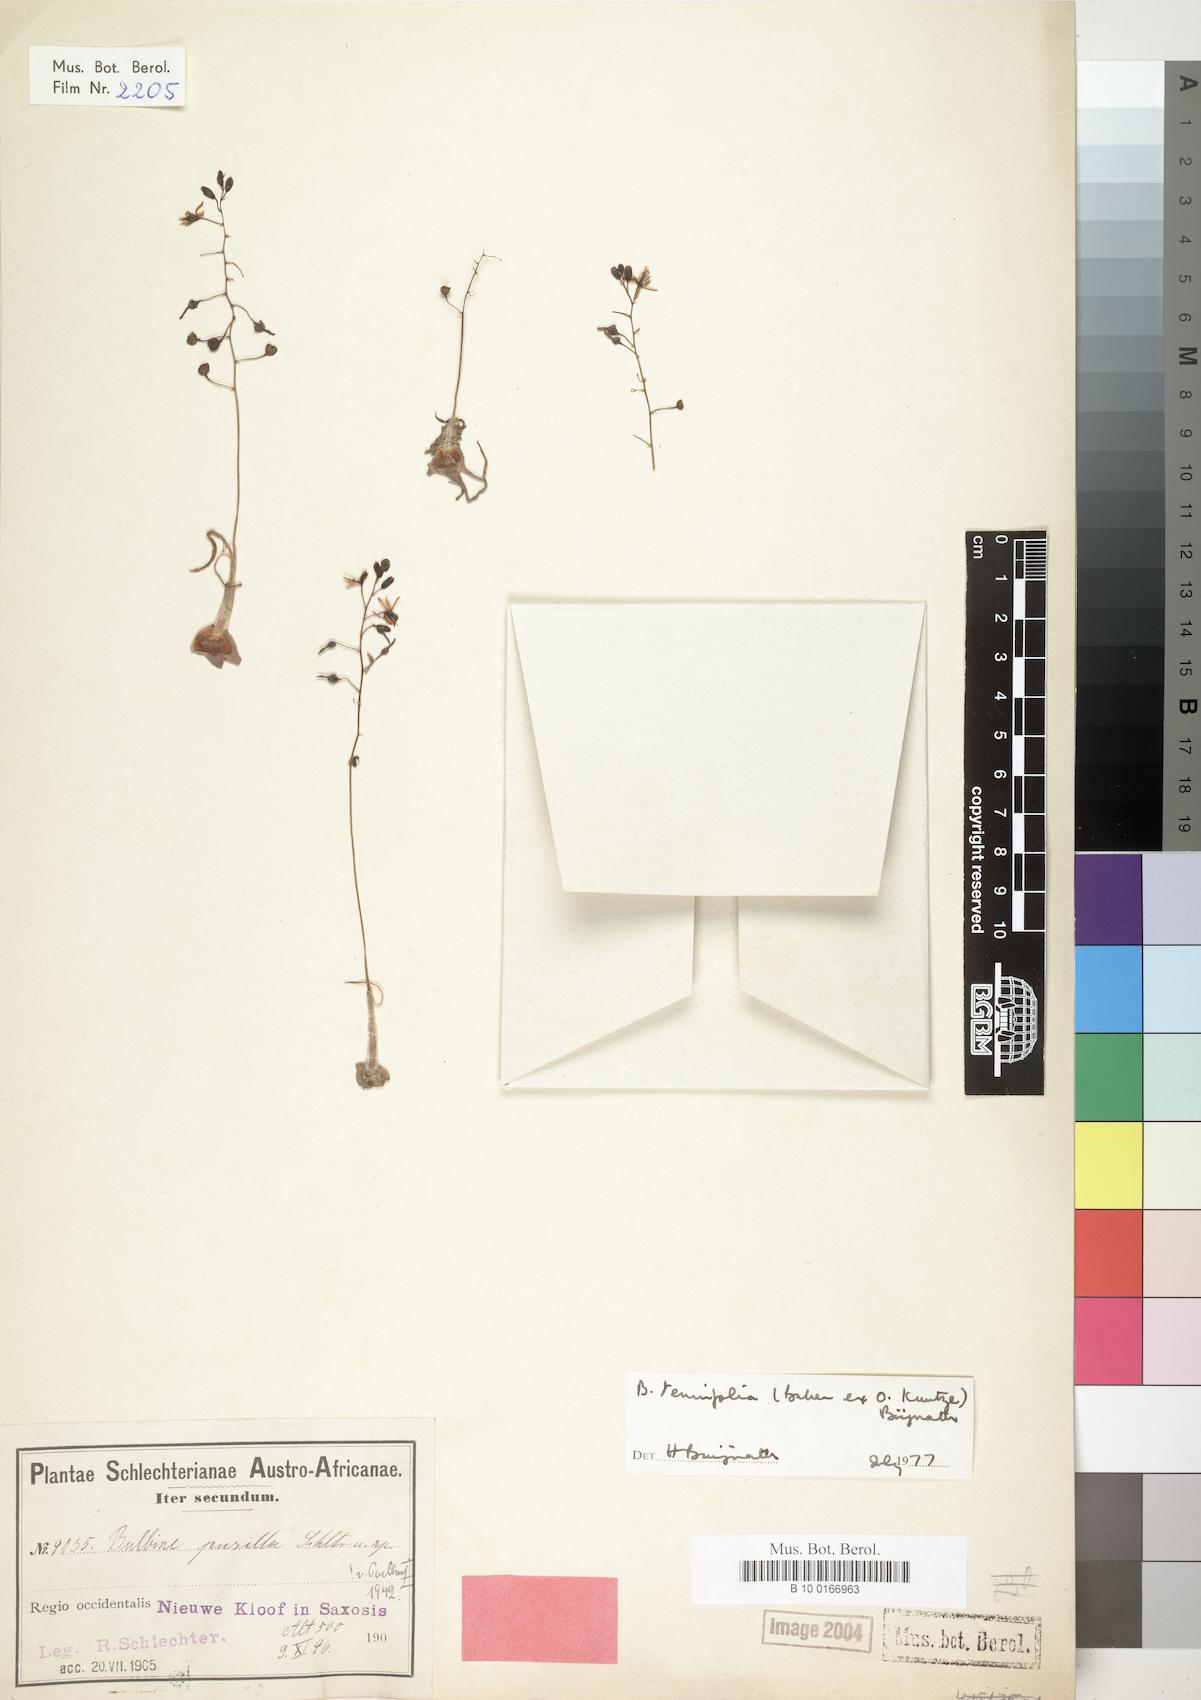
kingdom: Plantae
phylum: Tracheophyta
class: Liliopsida
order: Liliales
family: Liliaceae
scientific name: Liliaceae
